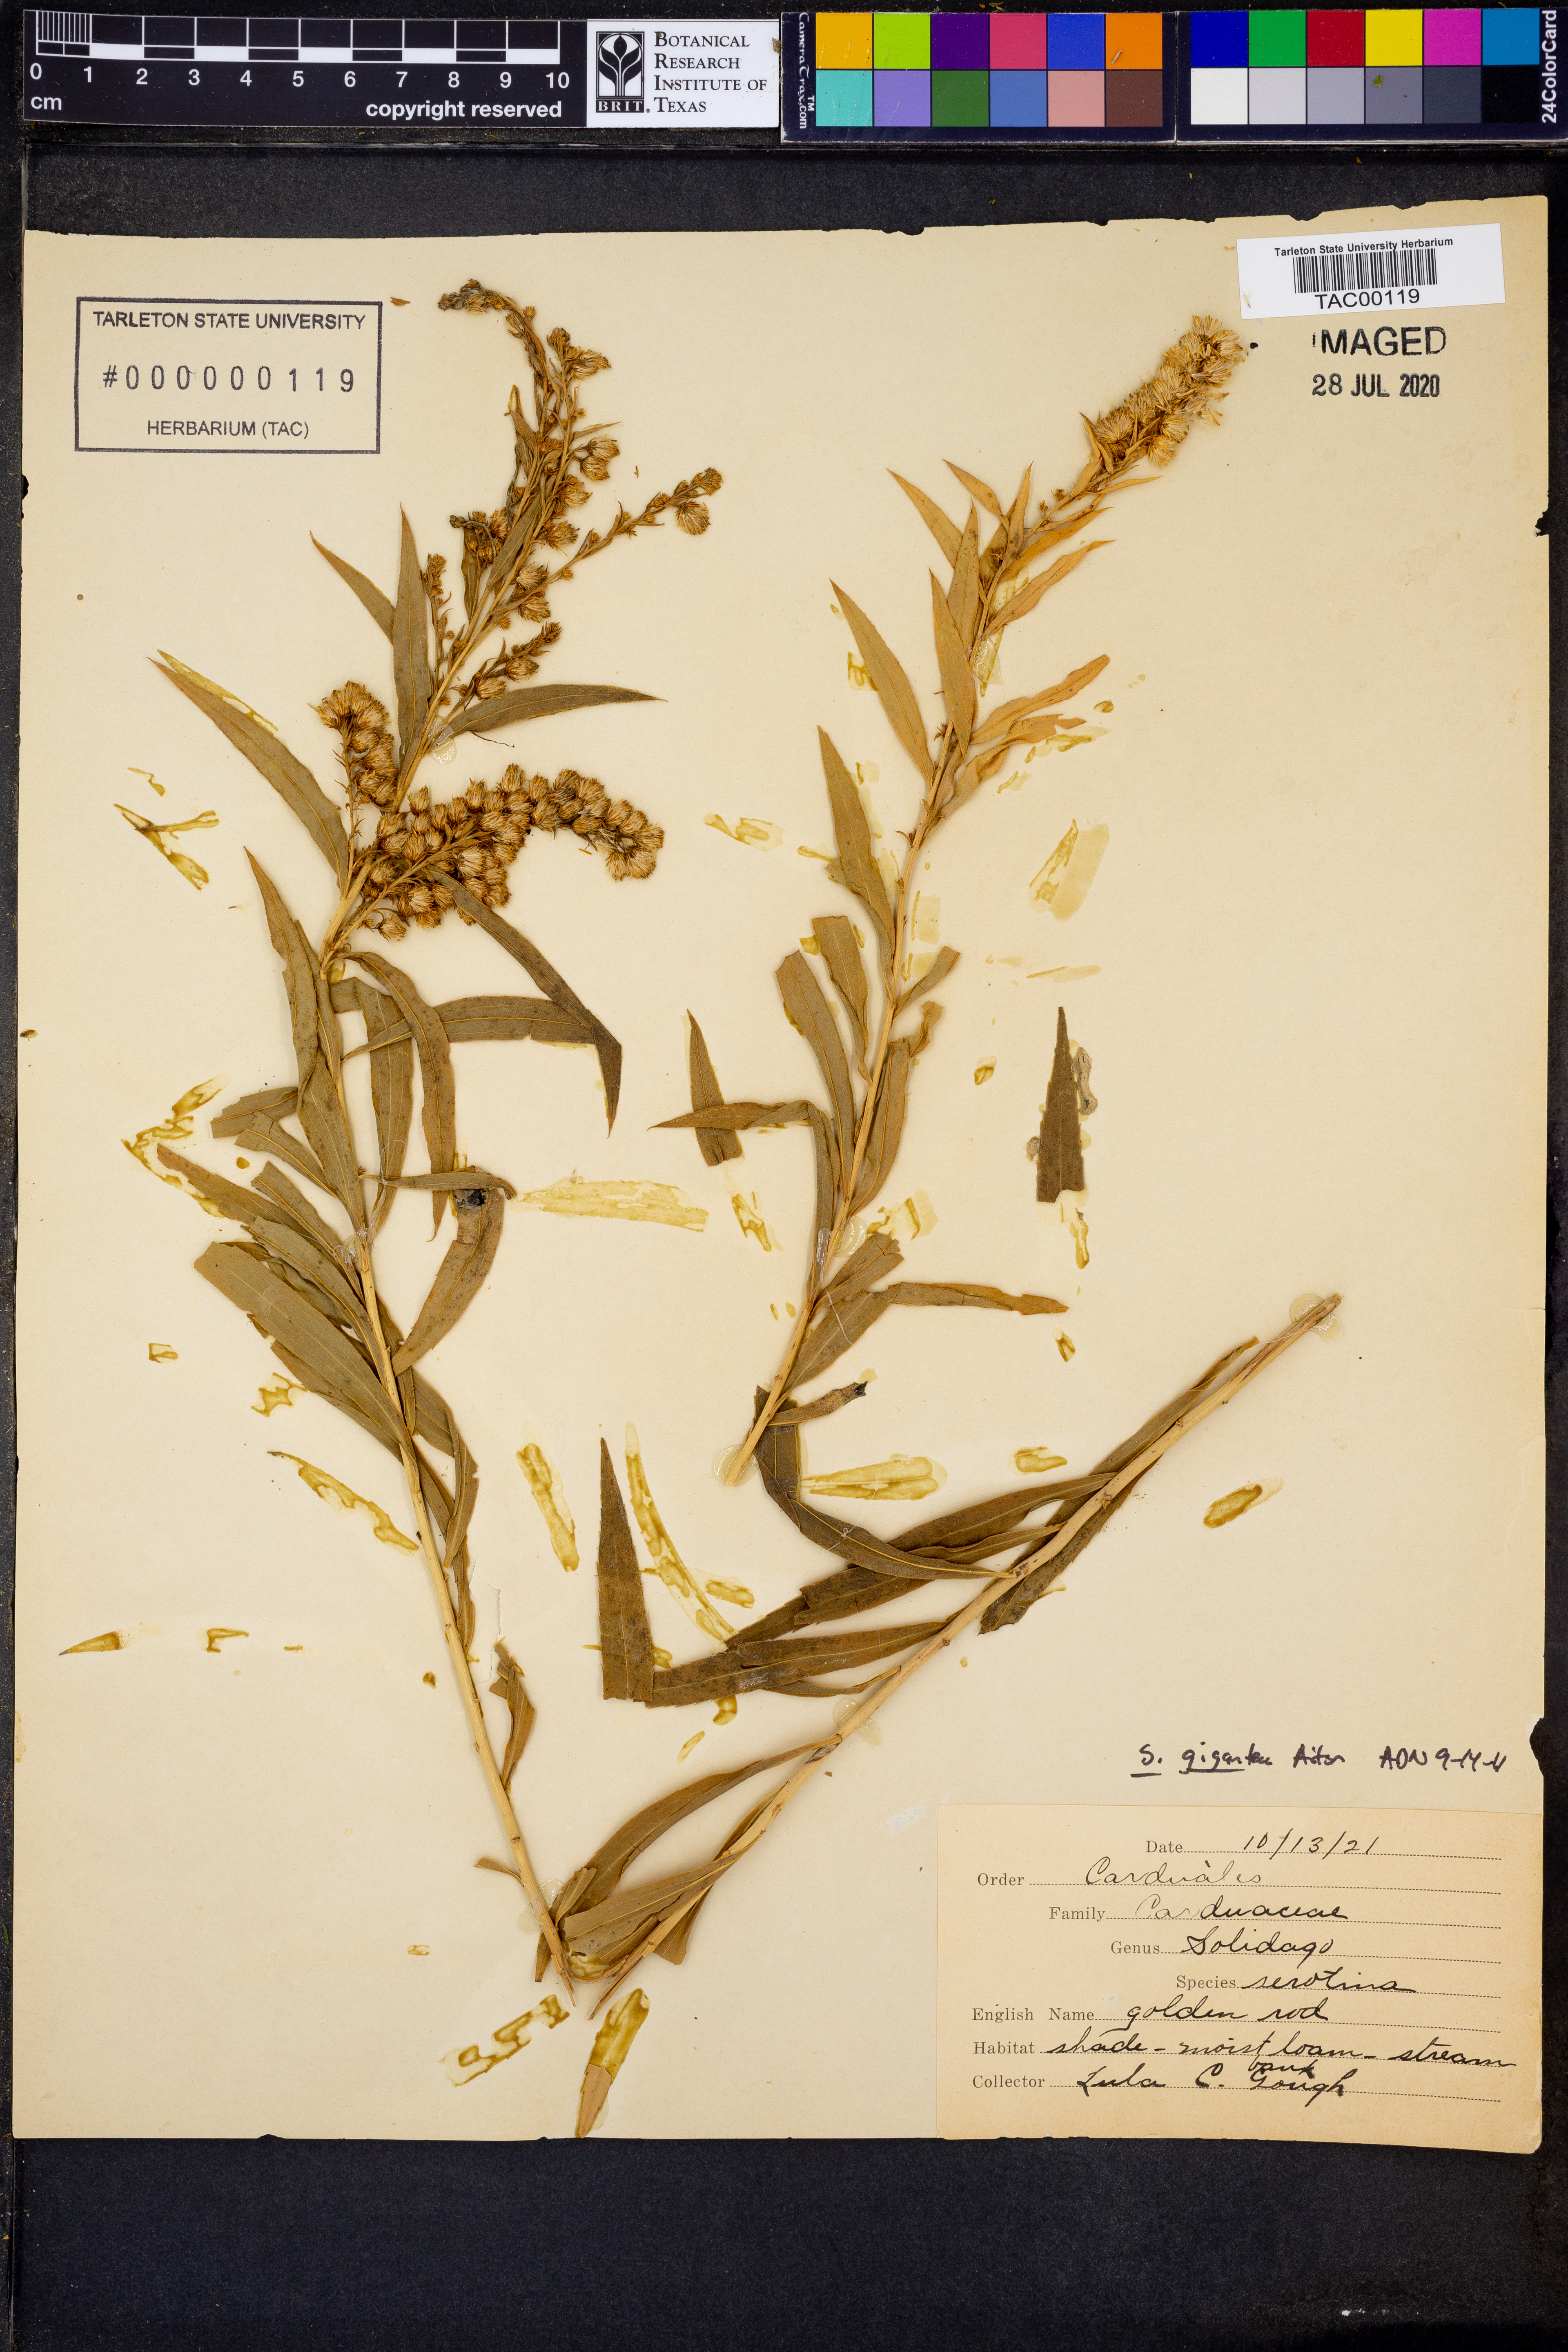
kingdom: Plantae
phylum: Tracheophyta
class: Magnoliopsida
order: Asterales
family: Asteraceae
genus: Solidago
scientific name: Solidago gigantea
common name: Giant goldenrod
